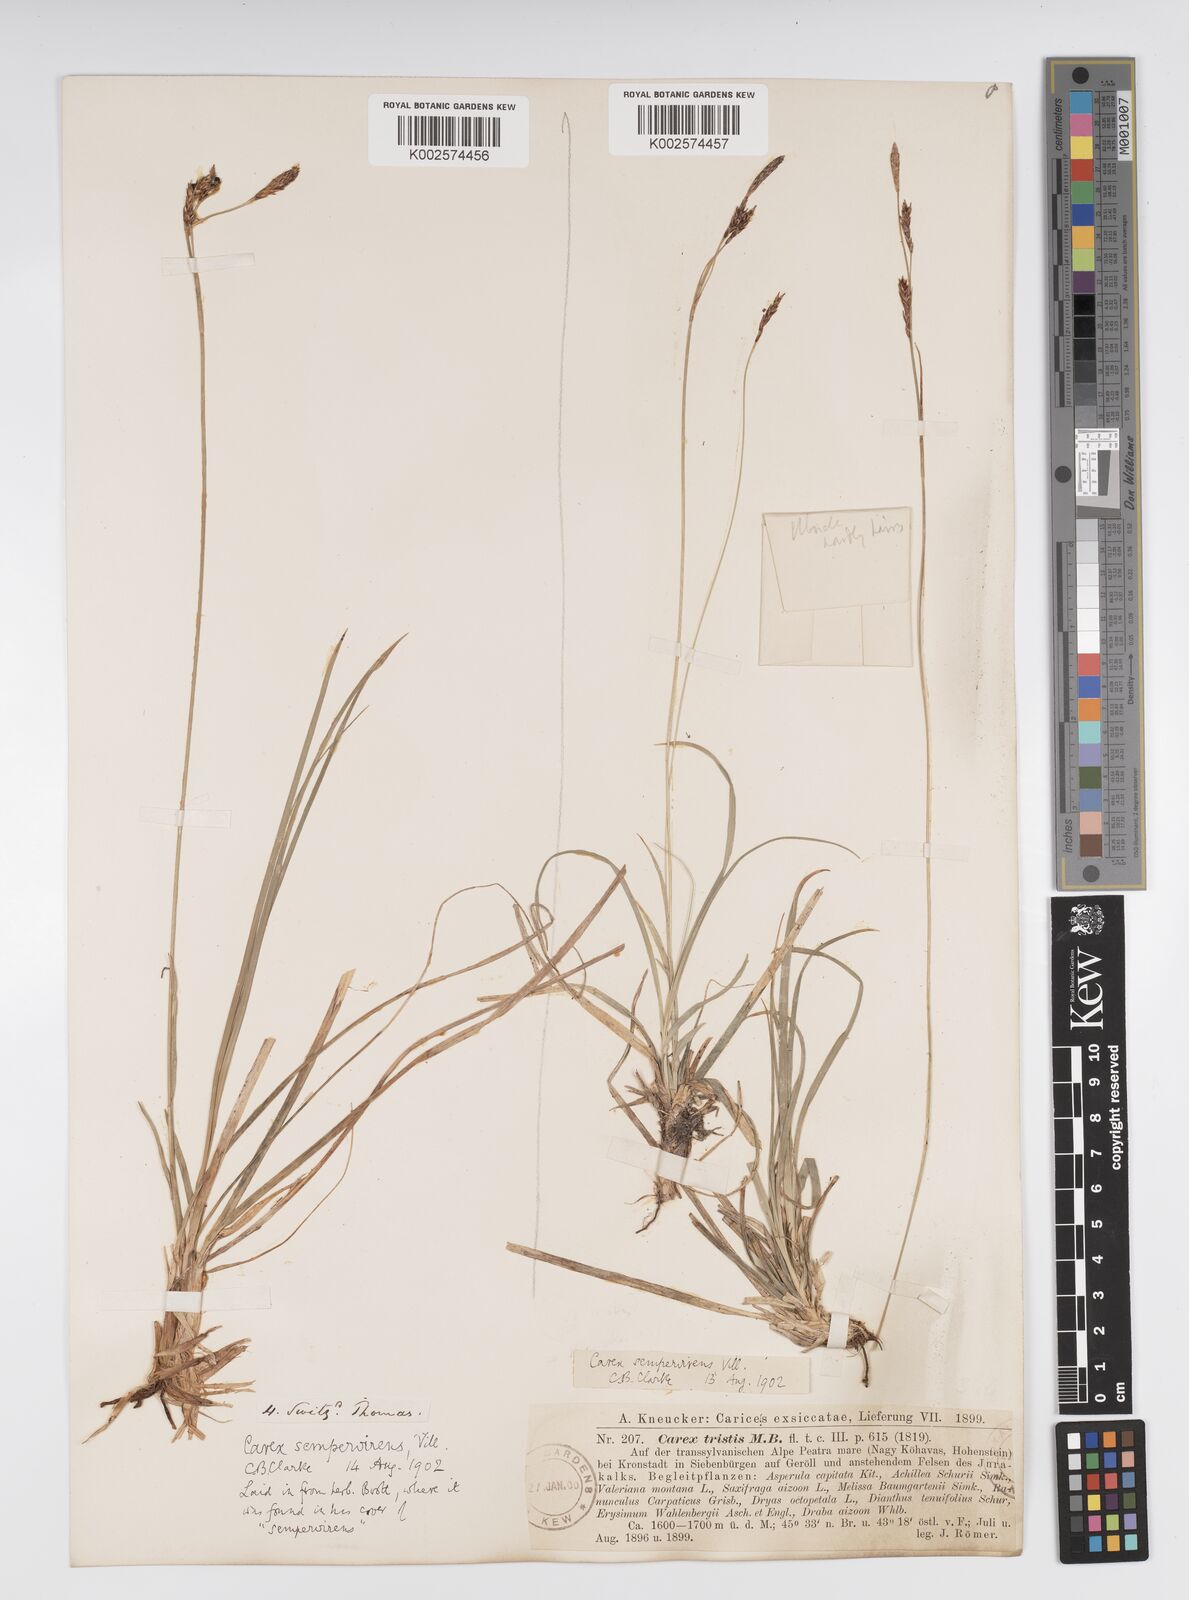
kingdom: Plantae
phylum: Tracheophyta
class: Liliopsida
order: Poales
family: Cyperaceae
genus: Carex
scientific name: Carex sempervirens
